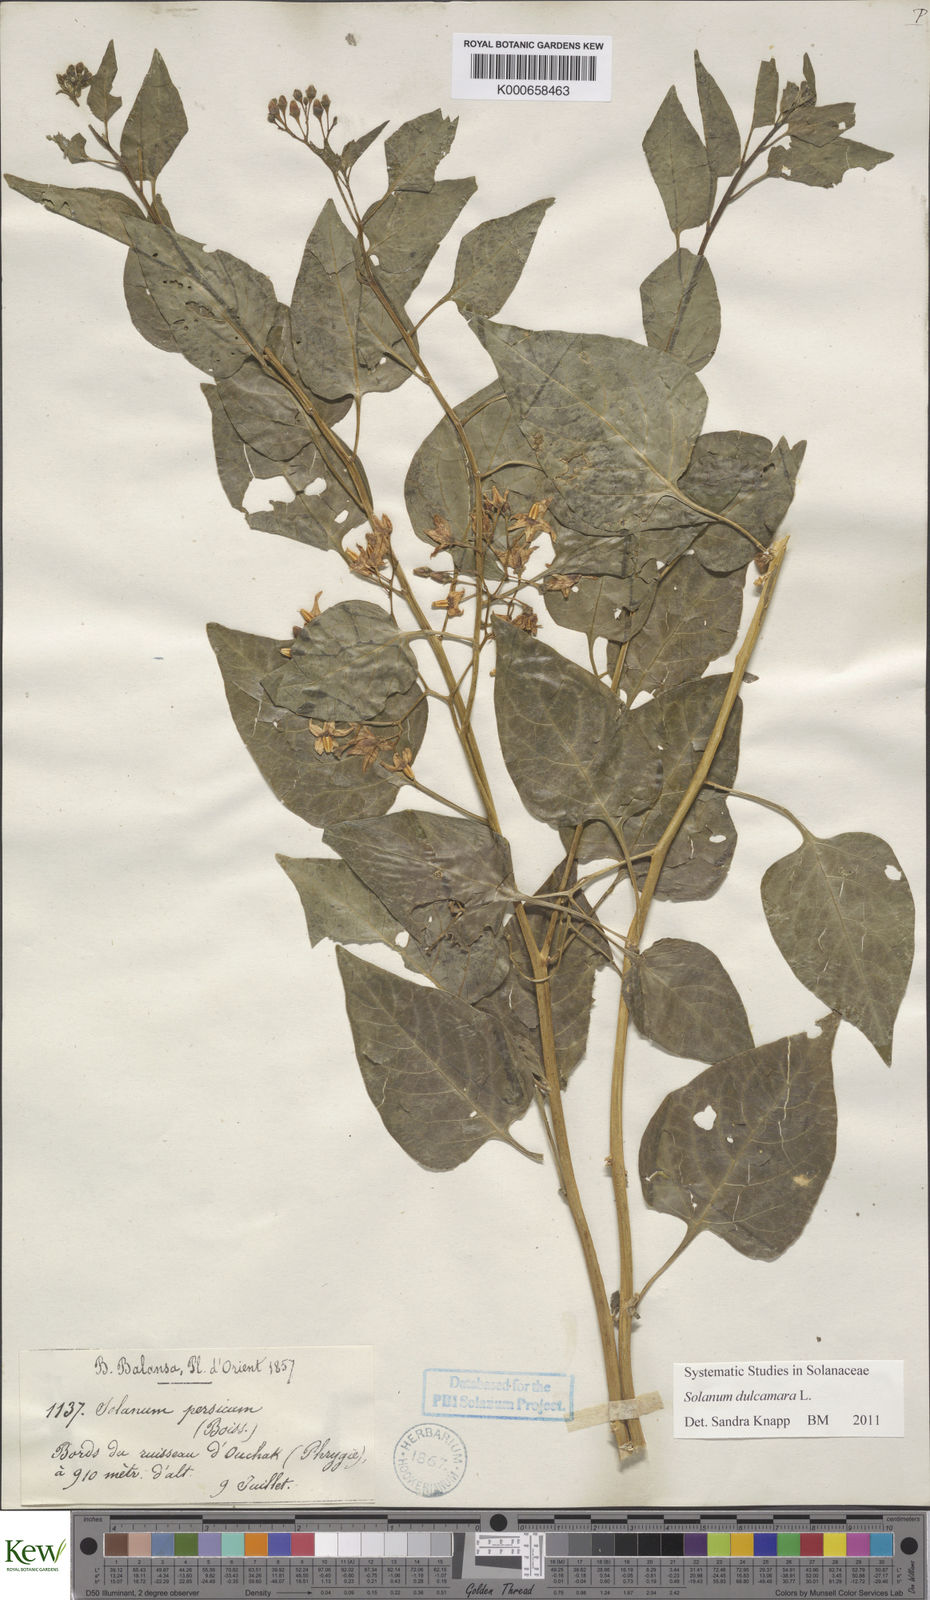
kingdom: Plantae
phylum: Tracheophyta
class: Magnoliopsida
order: Solanales
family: Solanaceae
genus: Solanum
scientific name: Solanum dulcamara
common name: Climbing nightshade
